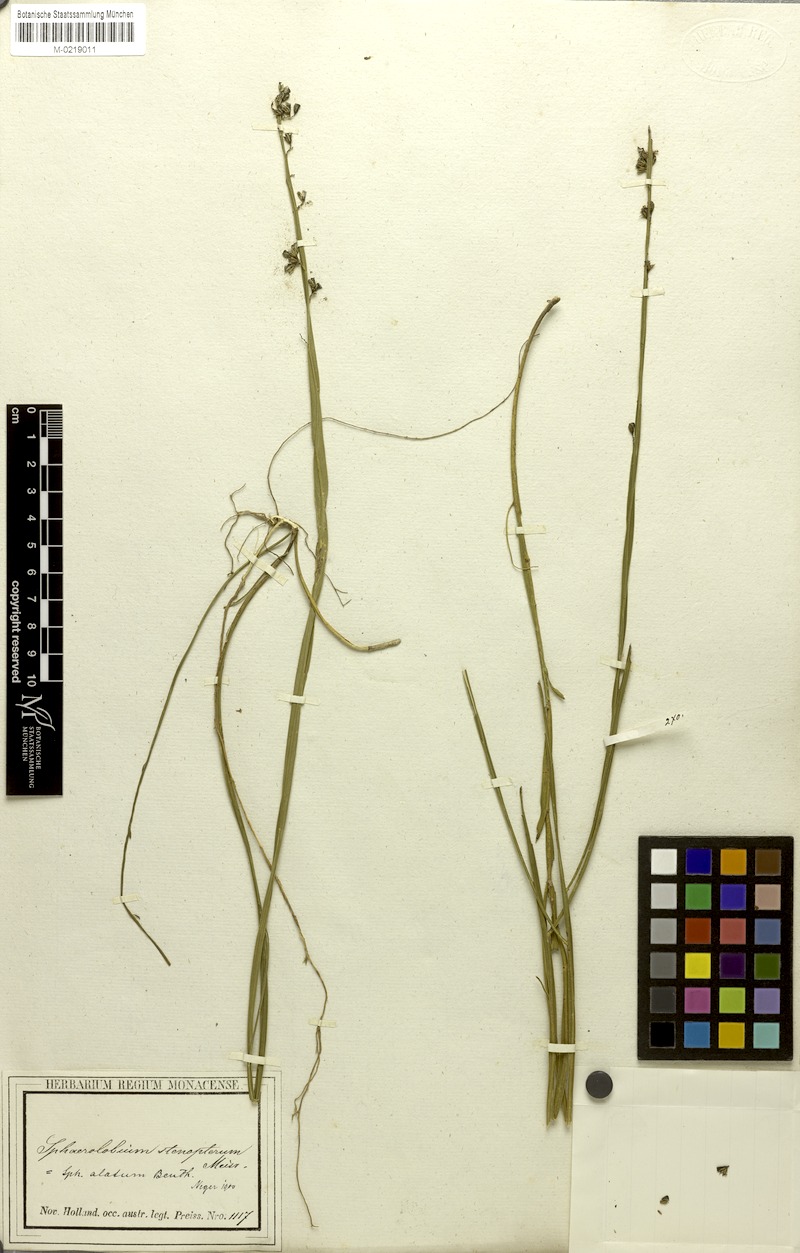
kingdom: Plantae
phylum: Tracheophyta
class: Magnoliopsida
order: Fabales
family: Fabaceae
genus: Sphaerolobium
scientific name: Sphaerolobium alatum
